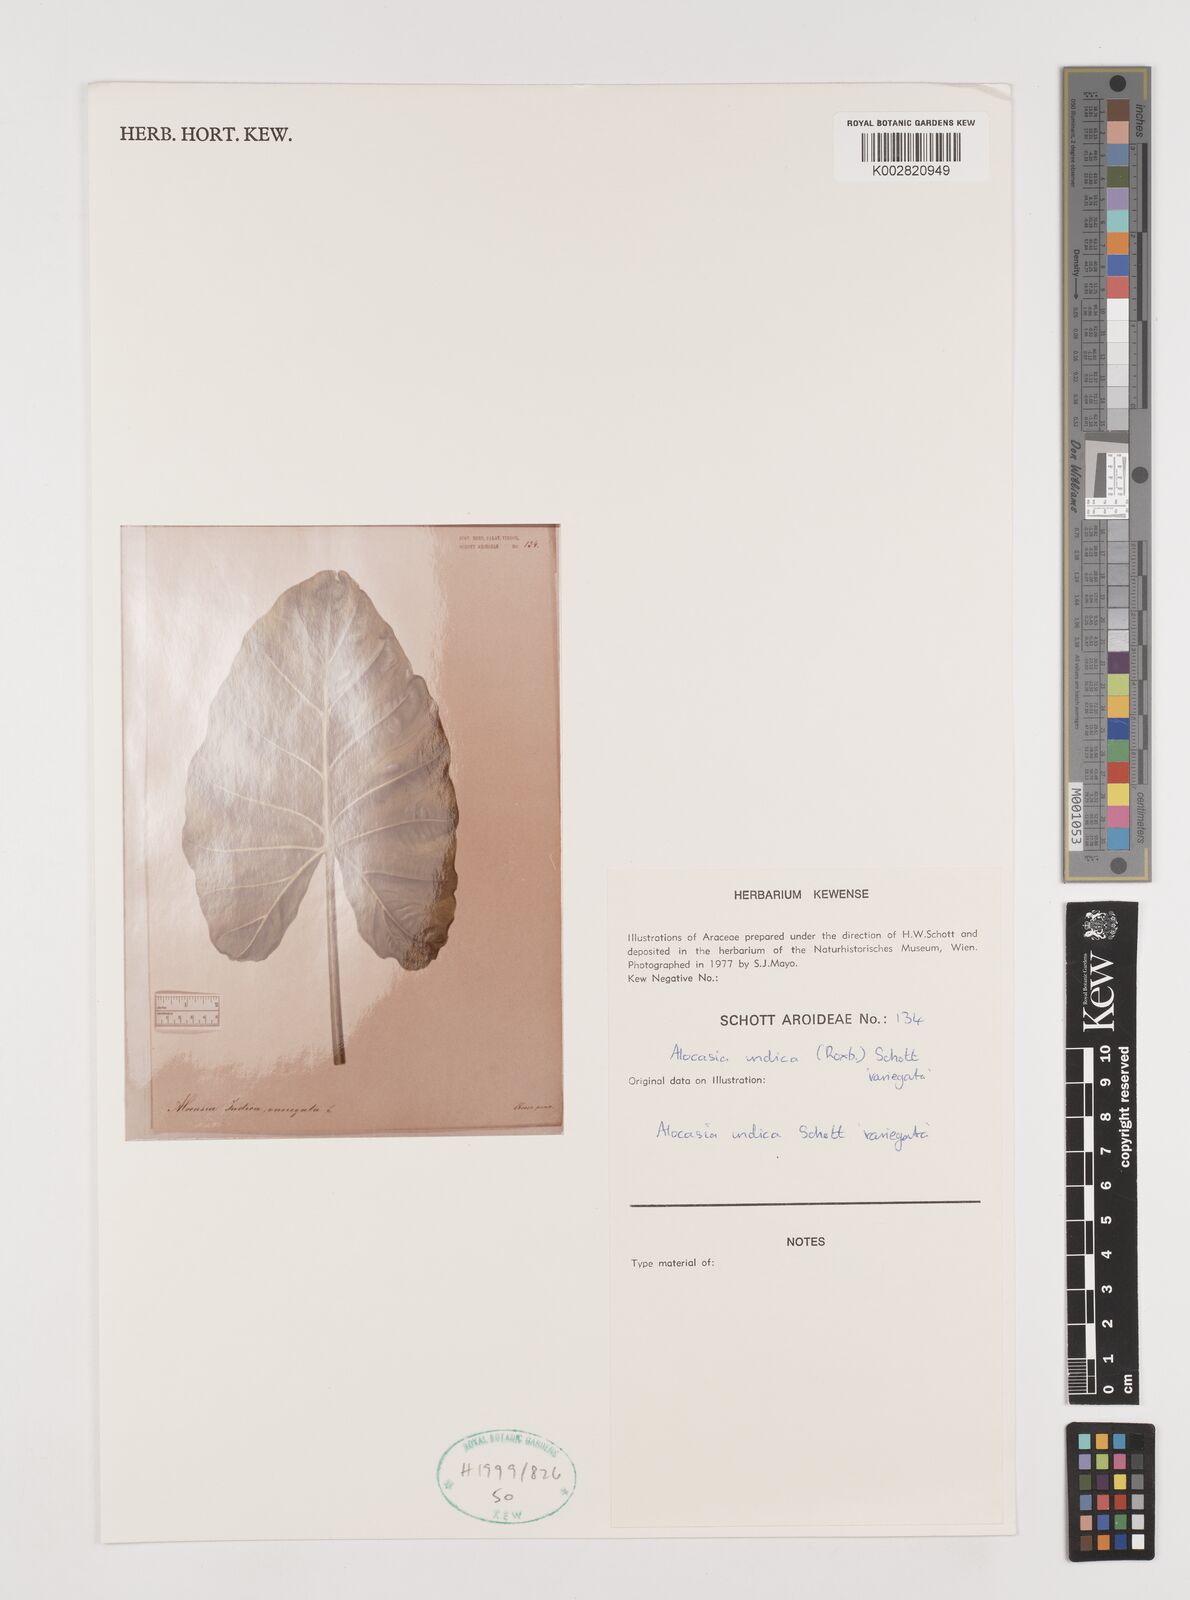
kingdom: Plantae
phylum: Tracheophyta
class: Liliopsida
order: Alismatales
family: Araceae
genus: Alocasia
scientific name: Alocasia macrorrhizos
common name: Giant taro
